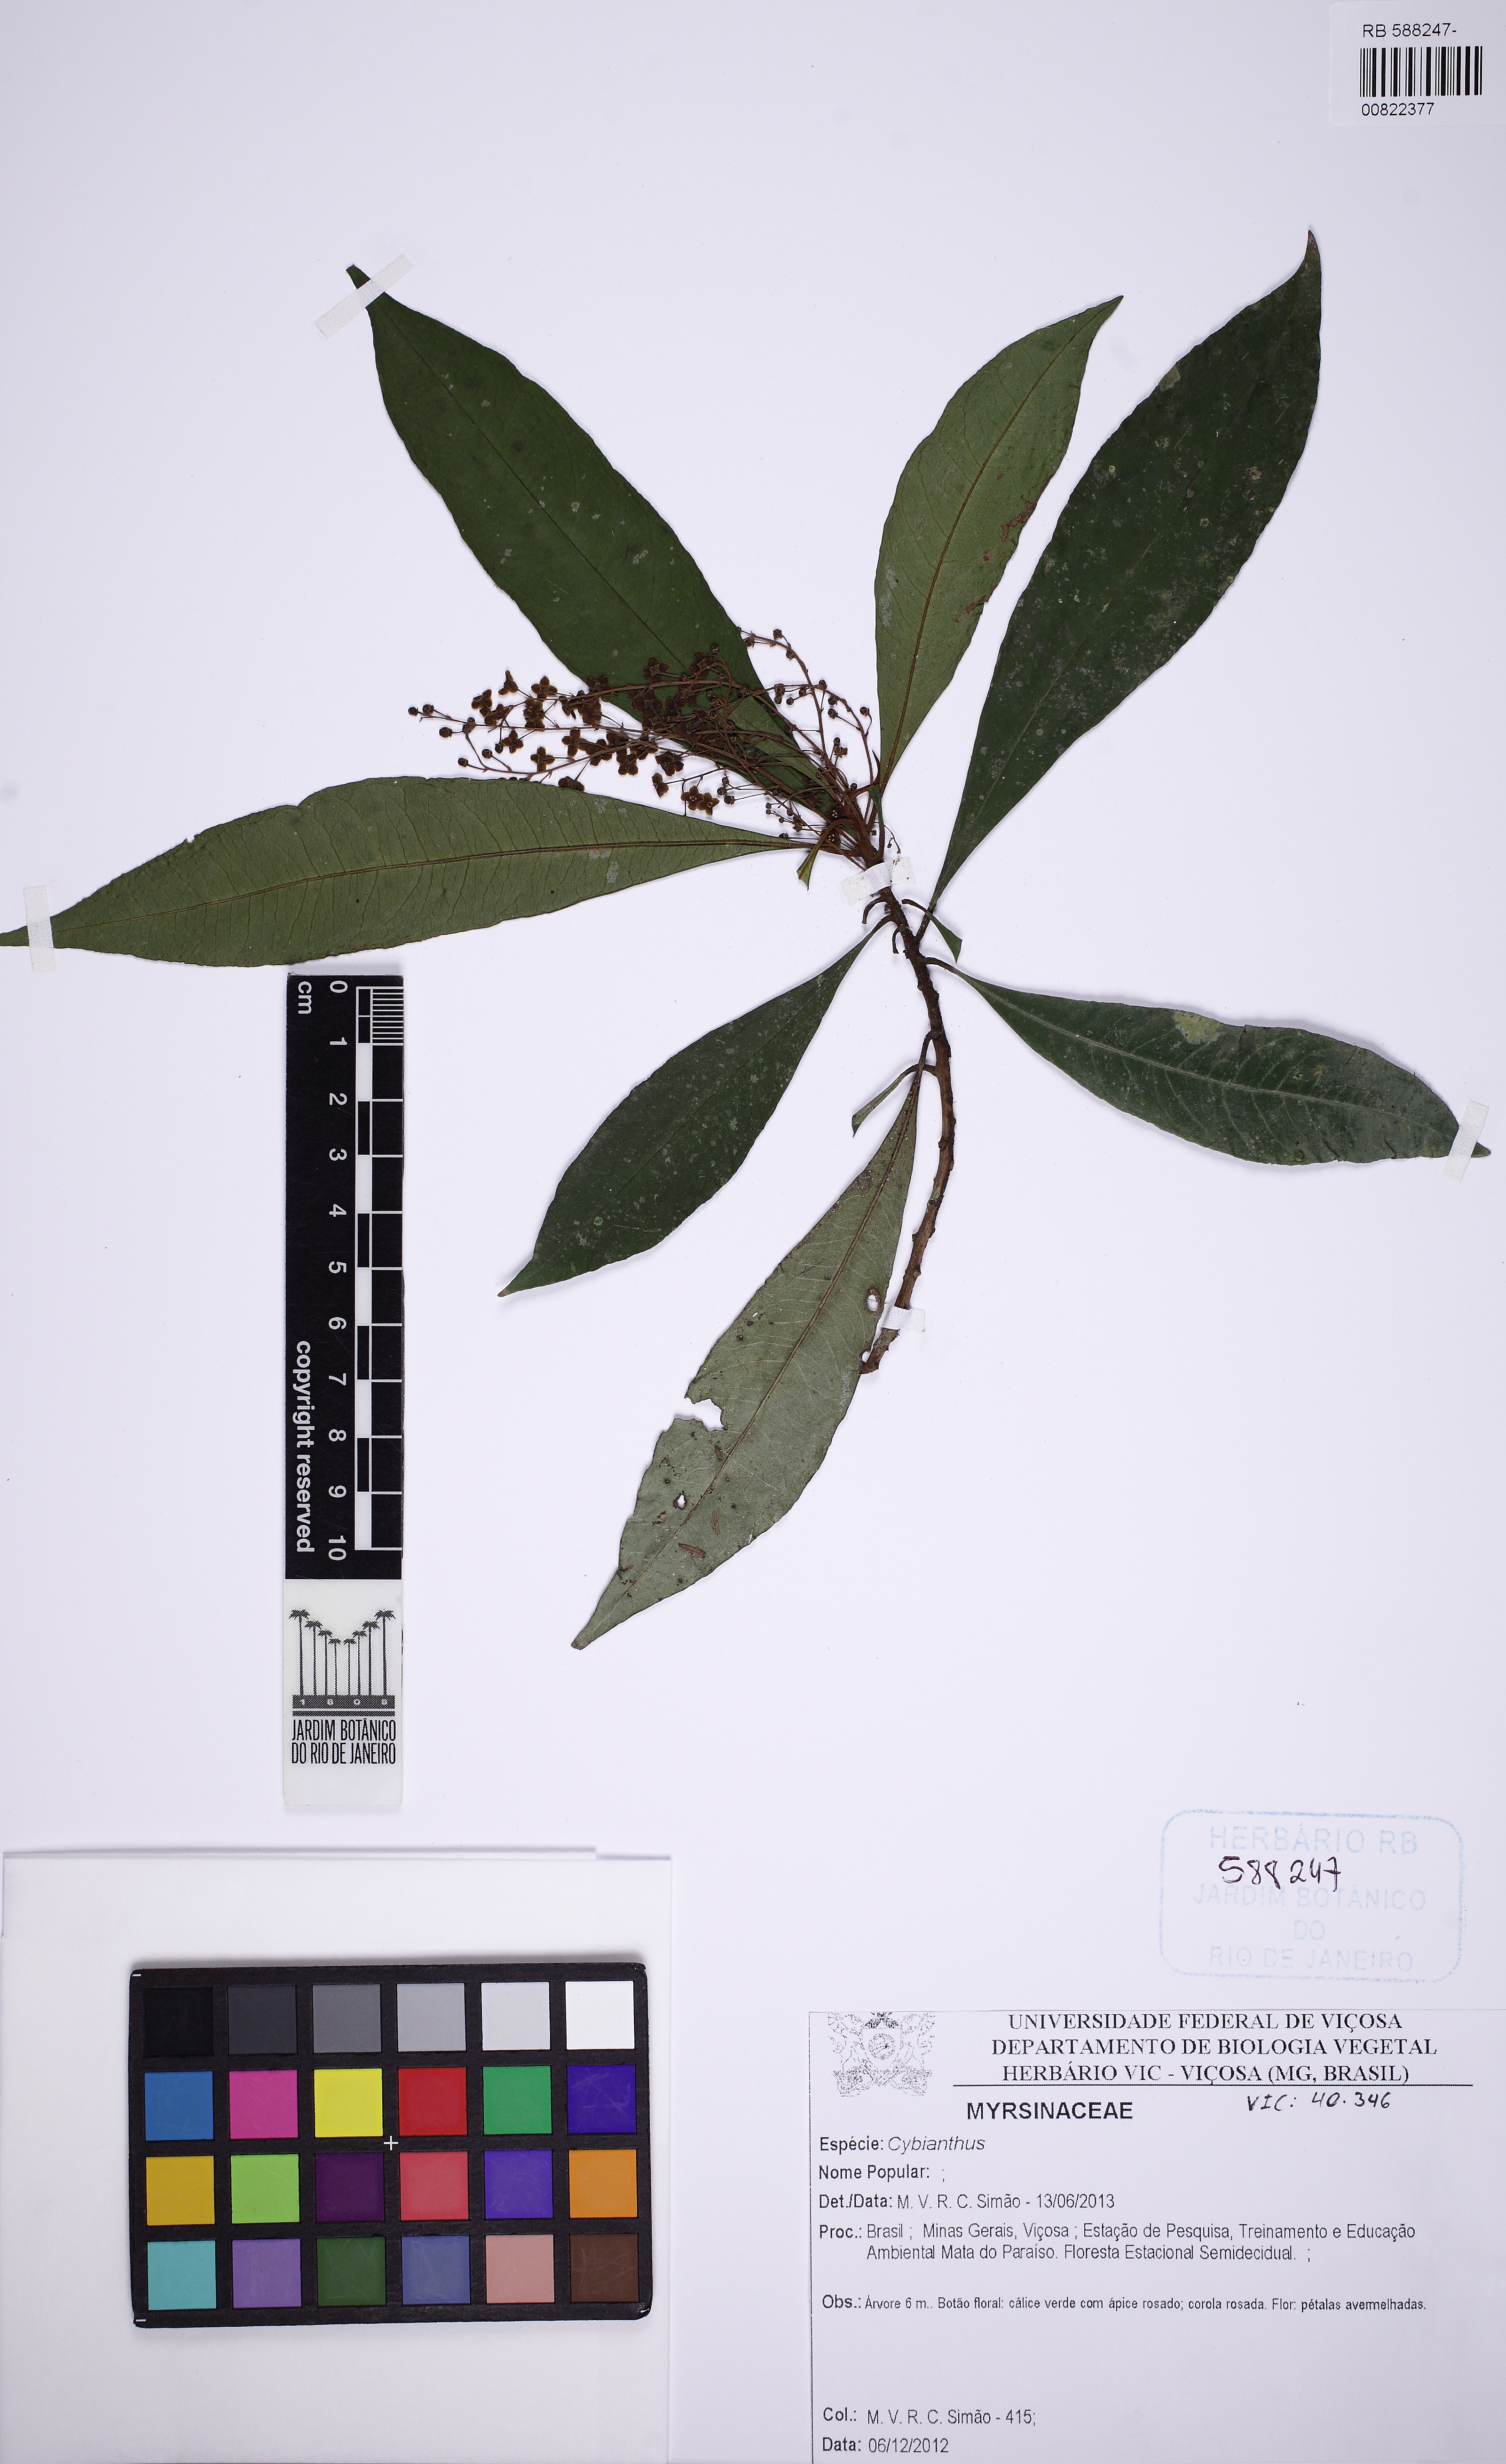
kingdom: Plantae
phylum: Tracheophyta
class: Magnoliopsida
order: Ericales
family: Primulaceae
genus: Cybianthus
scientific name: Cybianthus
